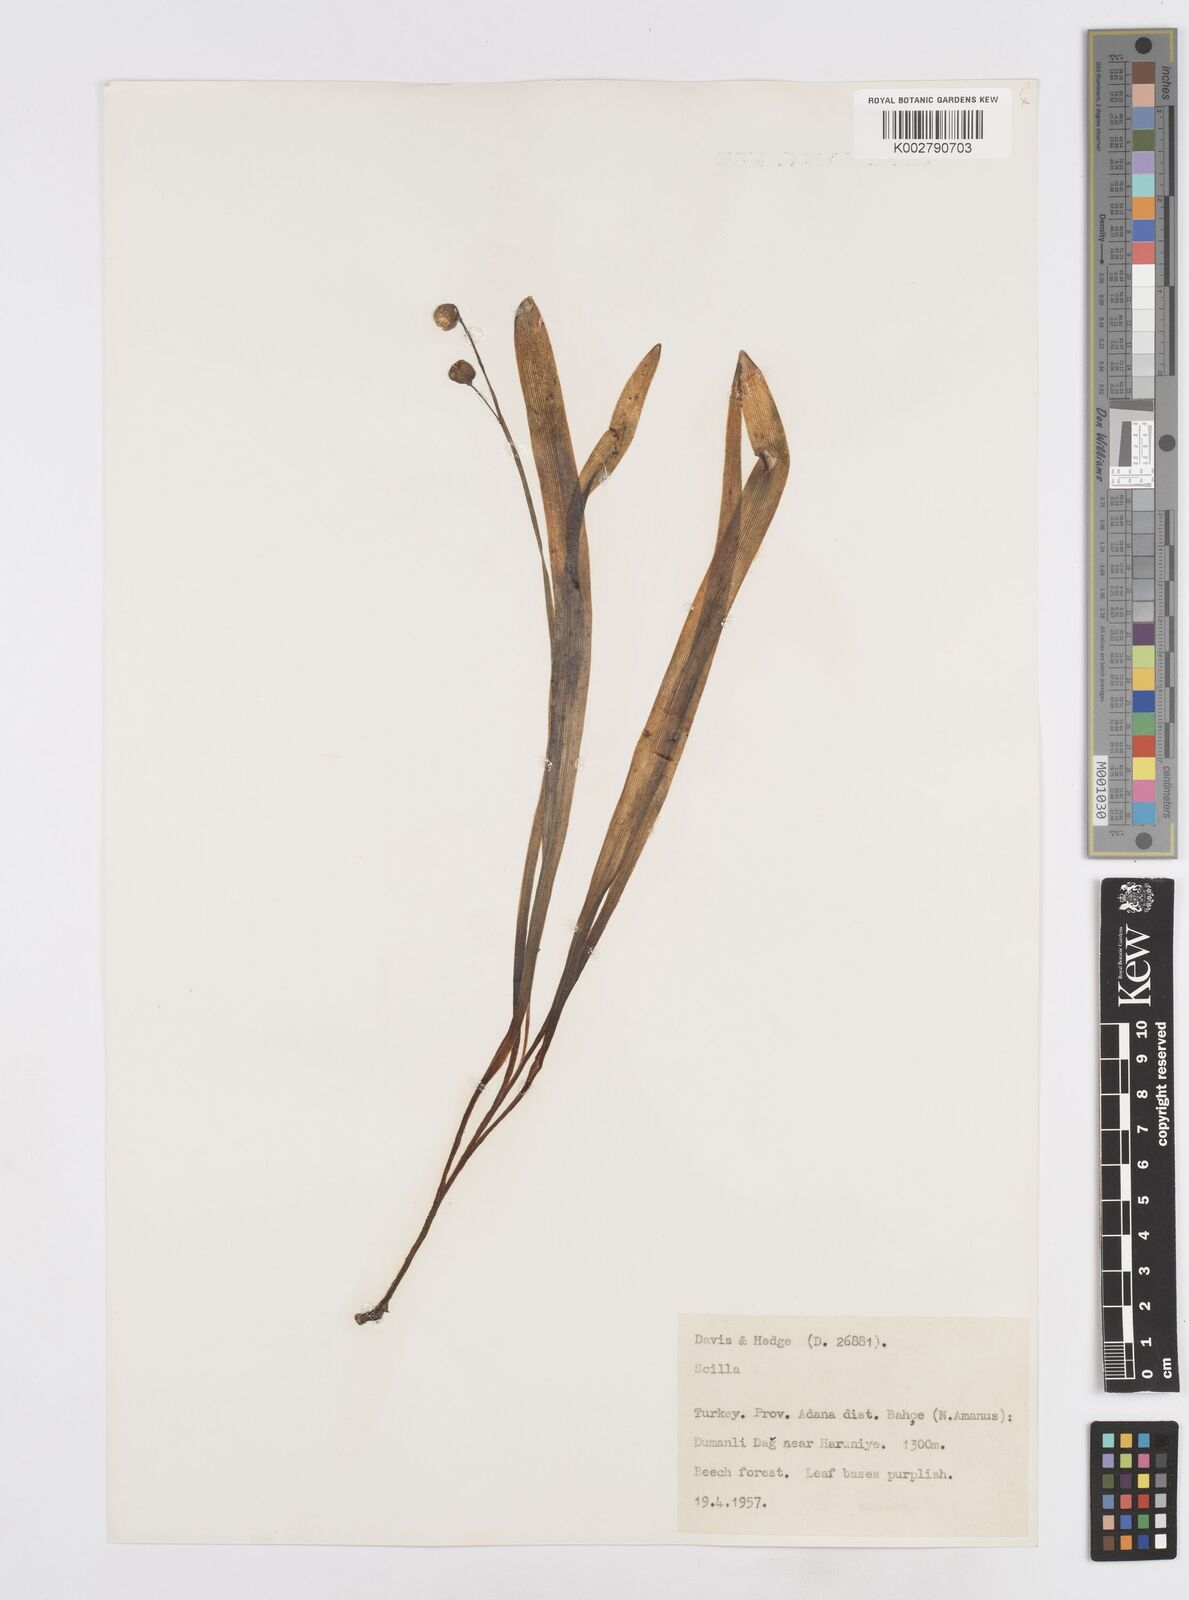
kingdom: Plantae
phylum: Tracheophyta
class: Liliopsida
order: Asparagales
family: Asparagaceae
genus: Scilla
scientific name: Scilla siberica
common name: Siberian squill
